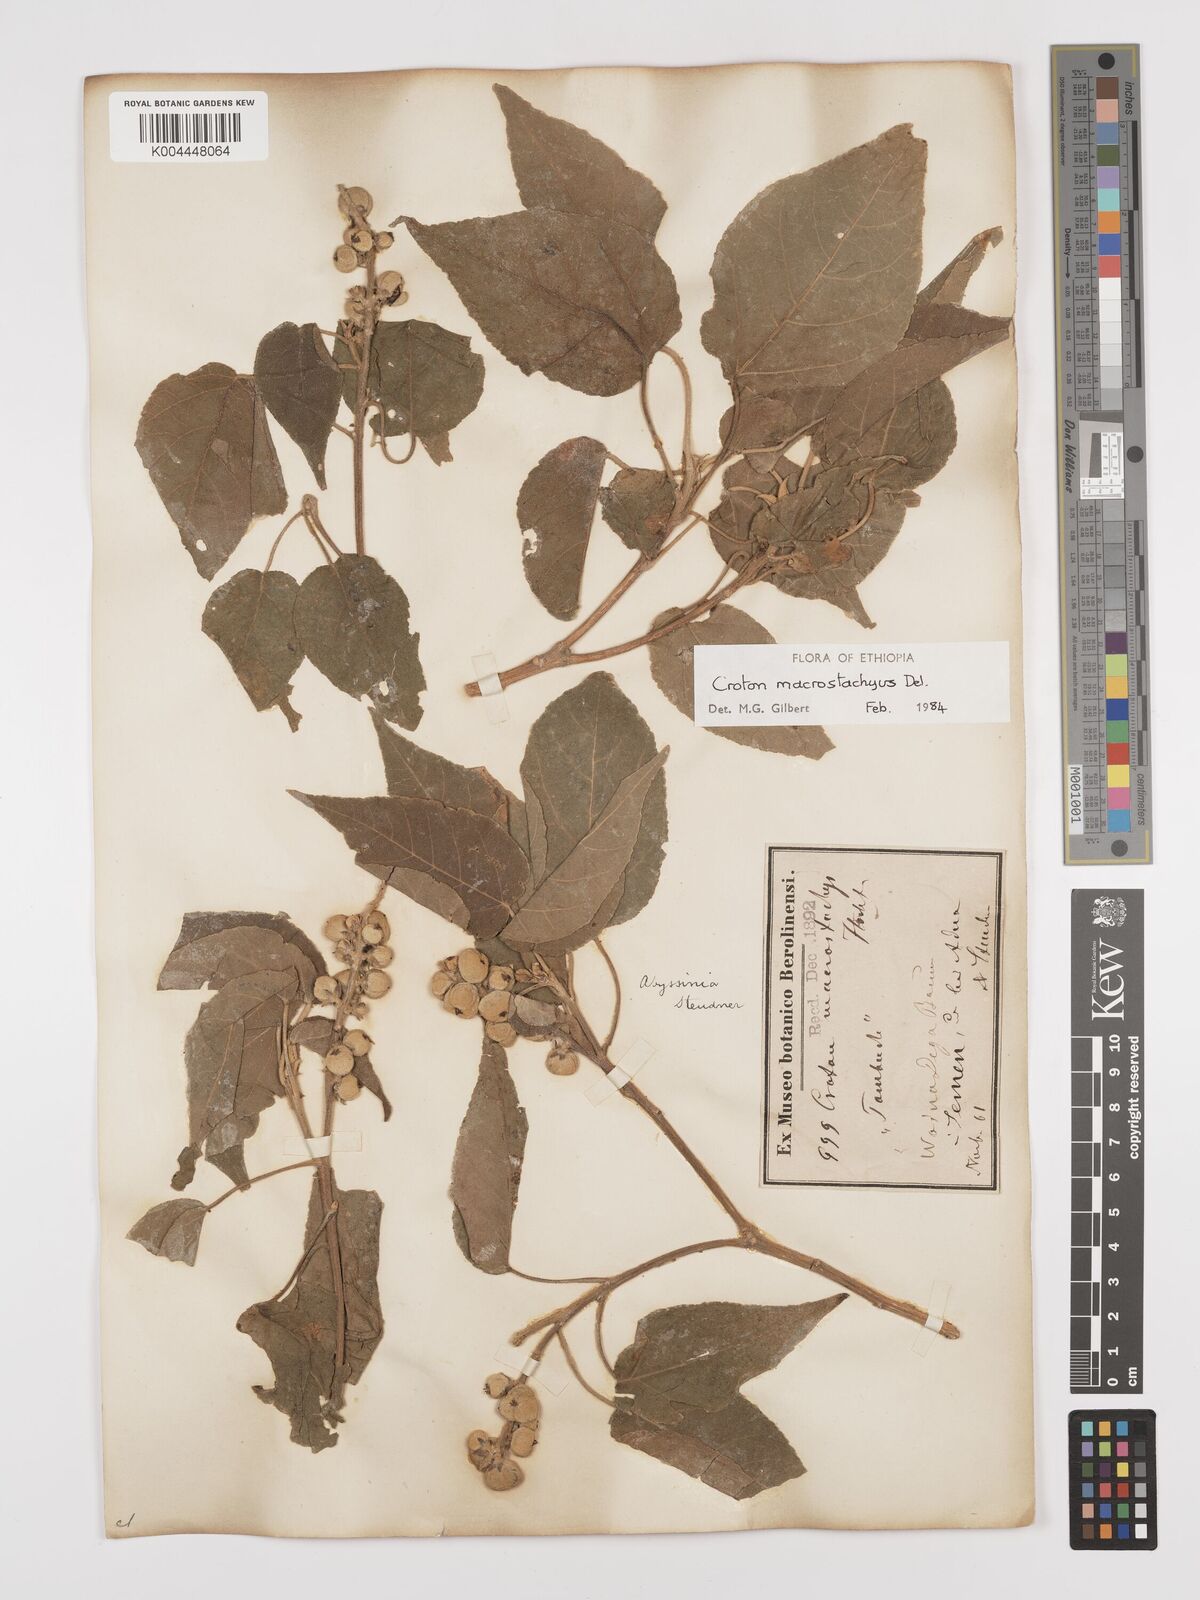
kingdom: Plantae
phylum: Tracheophyta
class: Magnoliopsida
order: Malpighiales
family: Euphorbiaceae
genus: Croton
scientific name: Croton macrostachyus
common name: Mutundu
